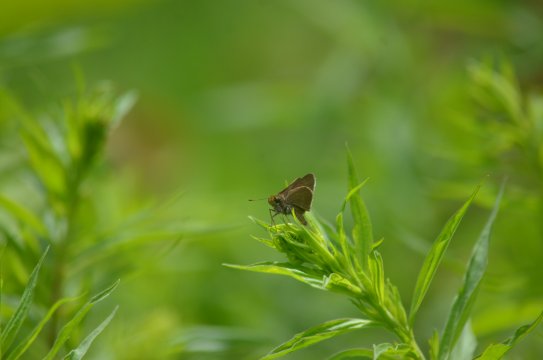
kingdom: Animalia
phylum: Arthropoda
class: Insecta
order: Lepidoptera
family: Hesperiidae
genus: Euphyes
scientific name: Euphyes vestris
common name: Dun Skipper
